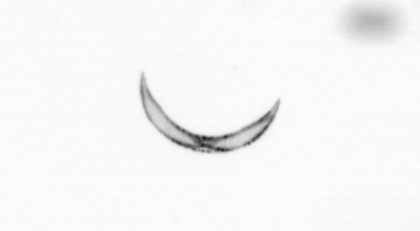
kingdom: Chromista
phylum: Ochrophyta
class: Bacillariophyceae
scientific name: Bacillariophyceae
